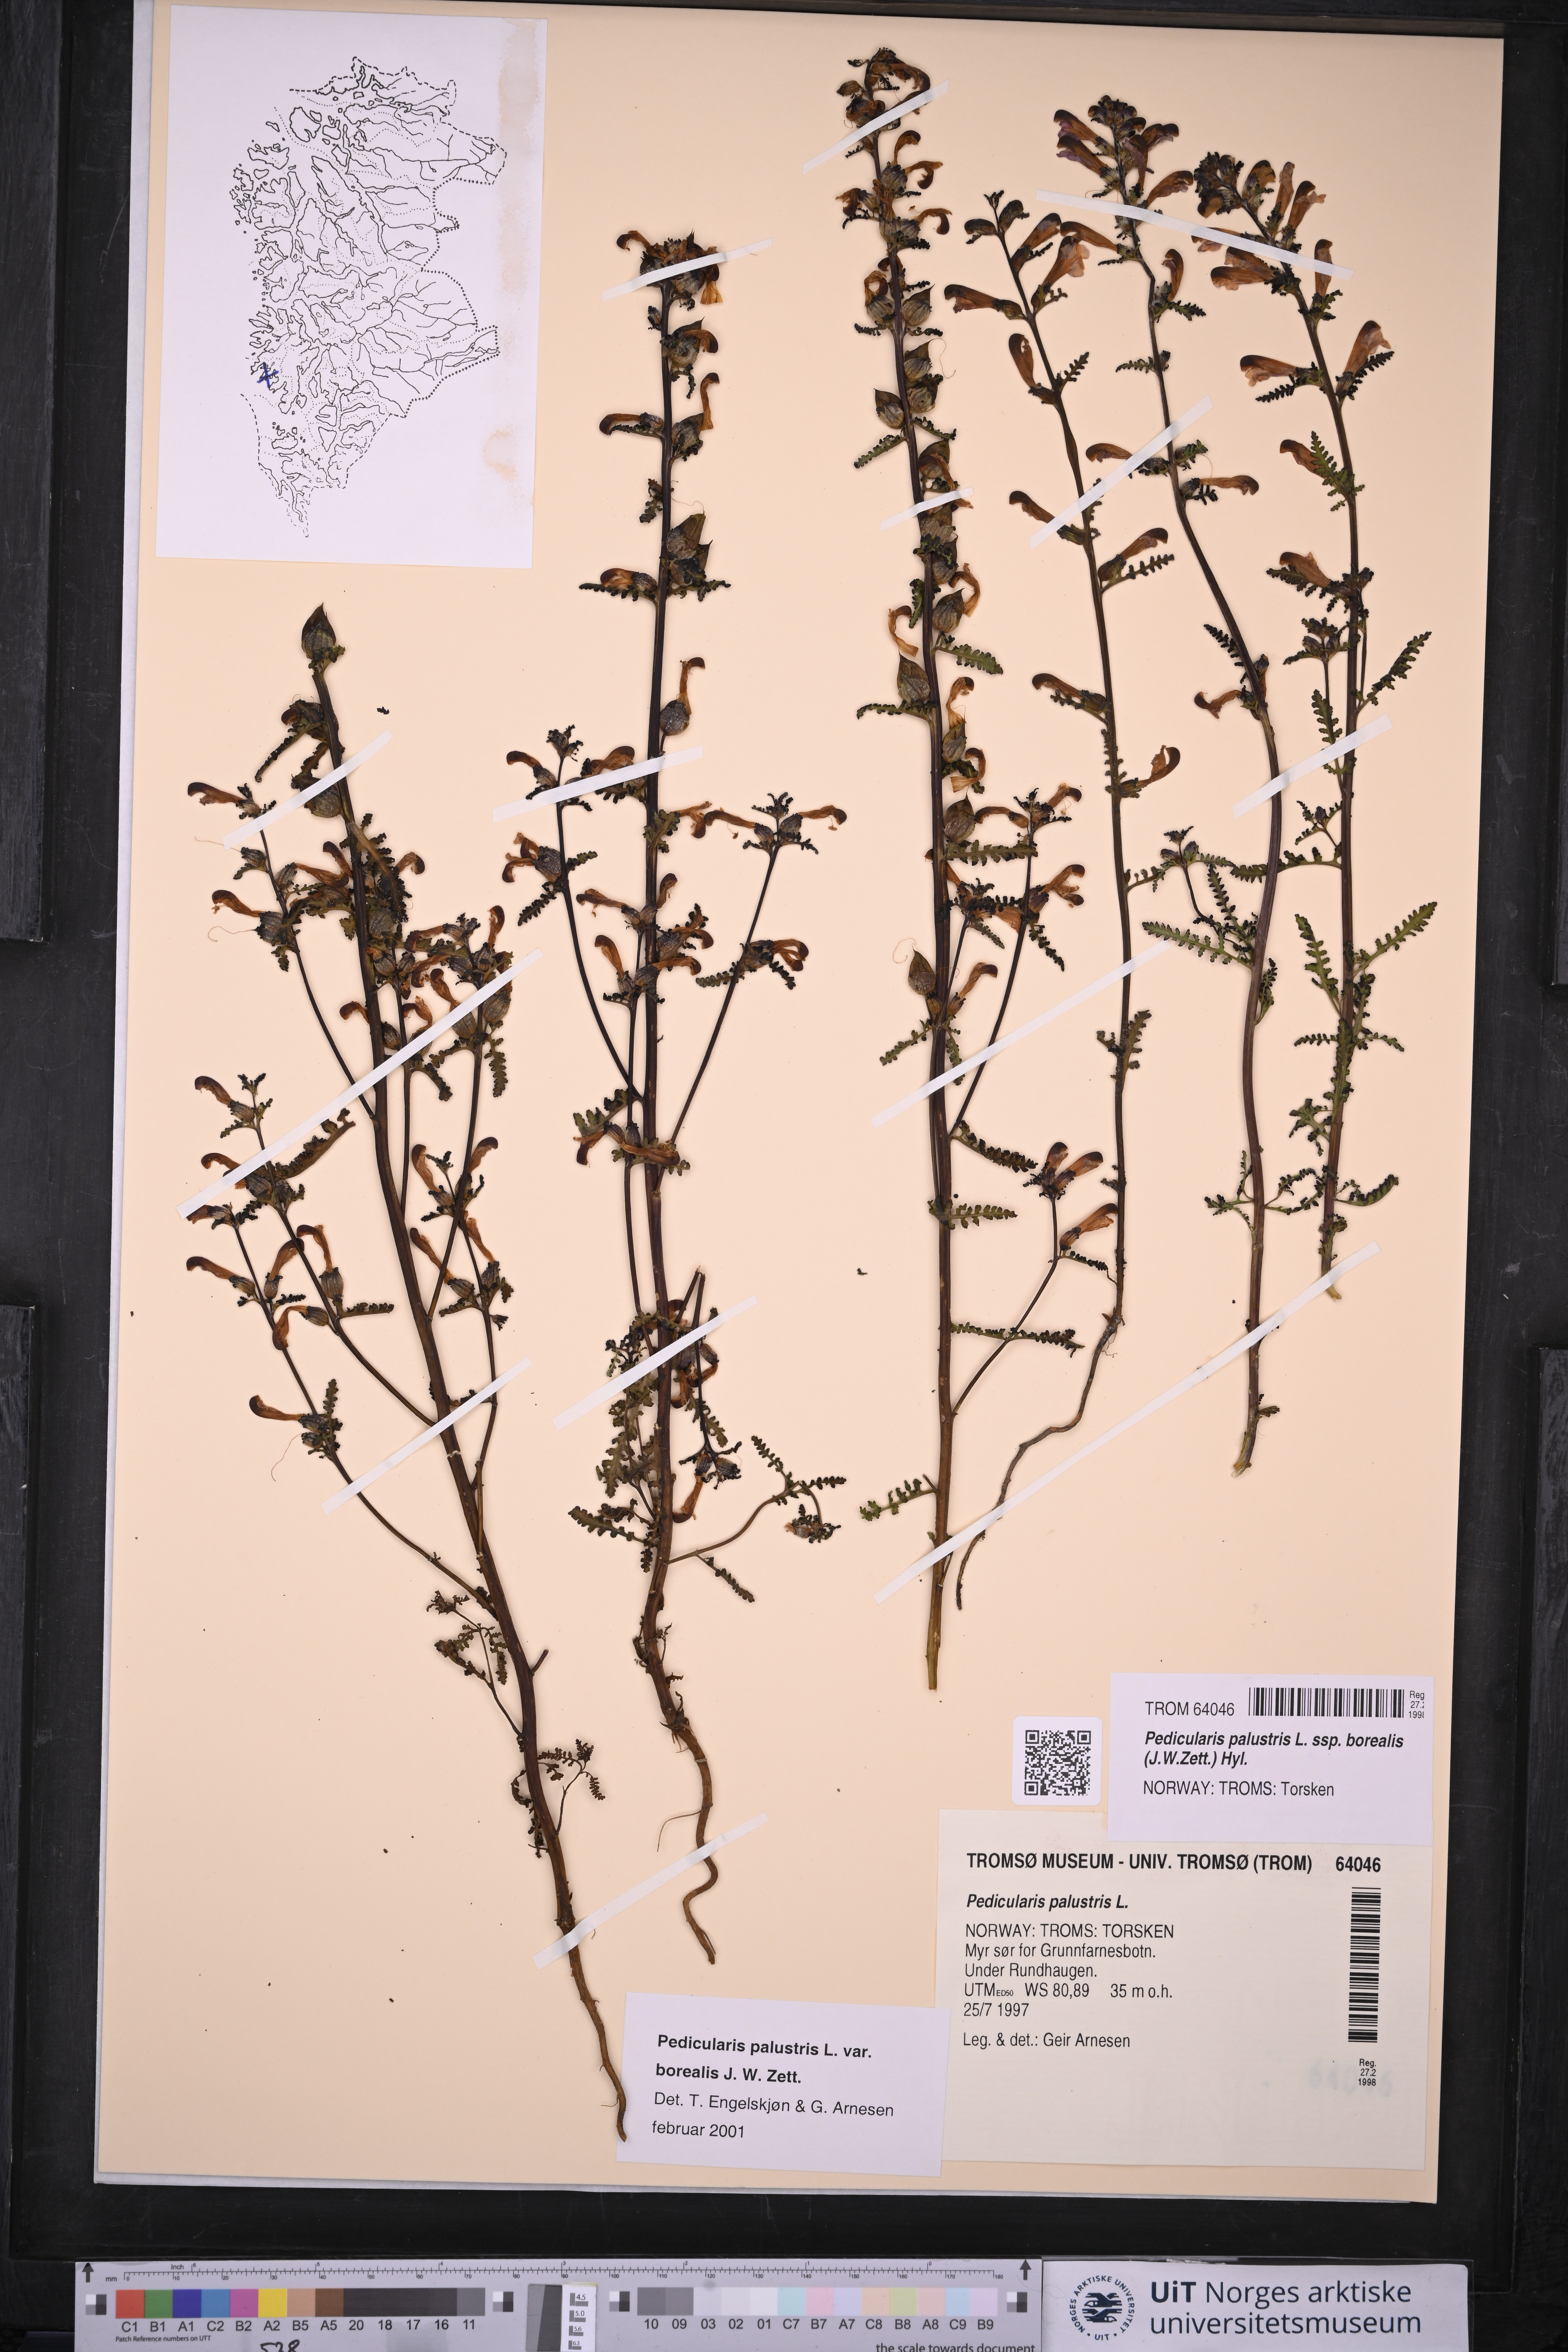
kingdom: Plantae
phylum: Tracheophyta
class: Magnoliopsida
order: Lamiales
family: Orobanchaceae
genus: Pedicularis
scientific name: Pedicularis palustris
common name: Marsh lousewort
